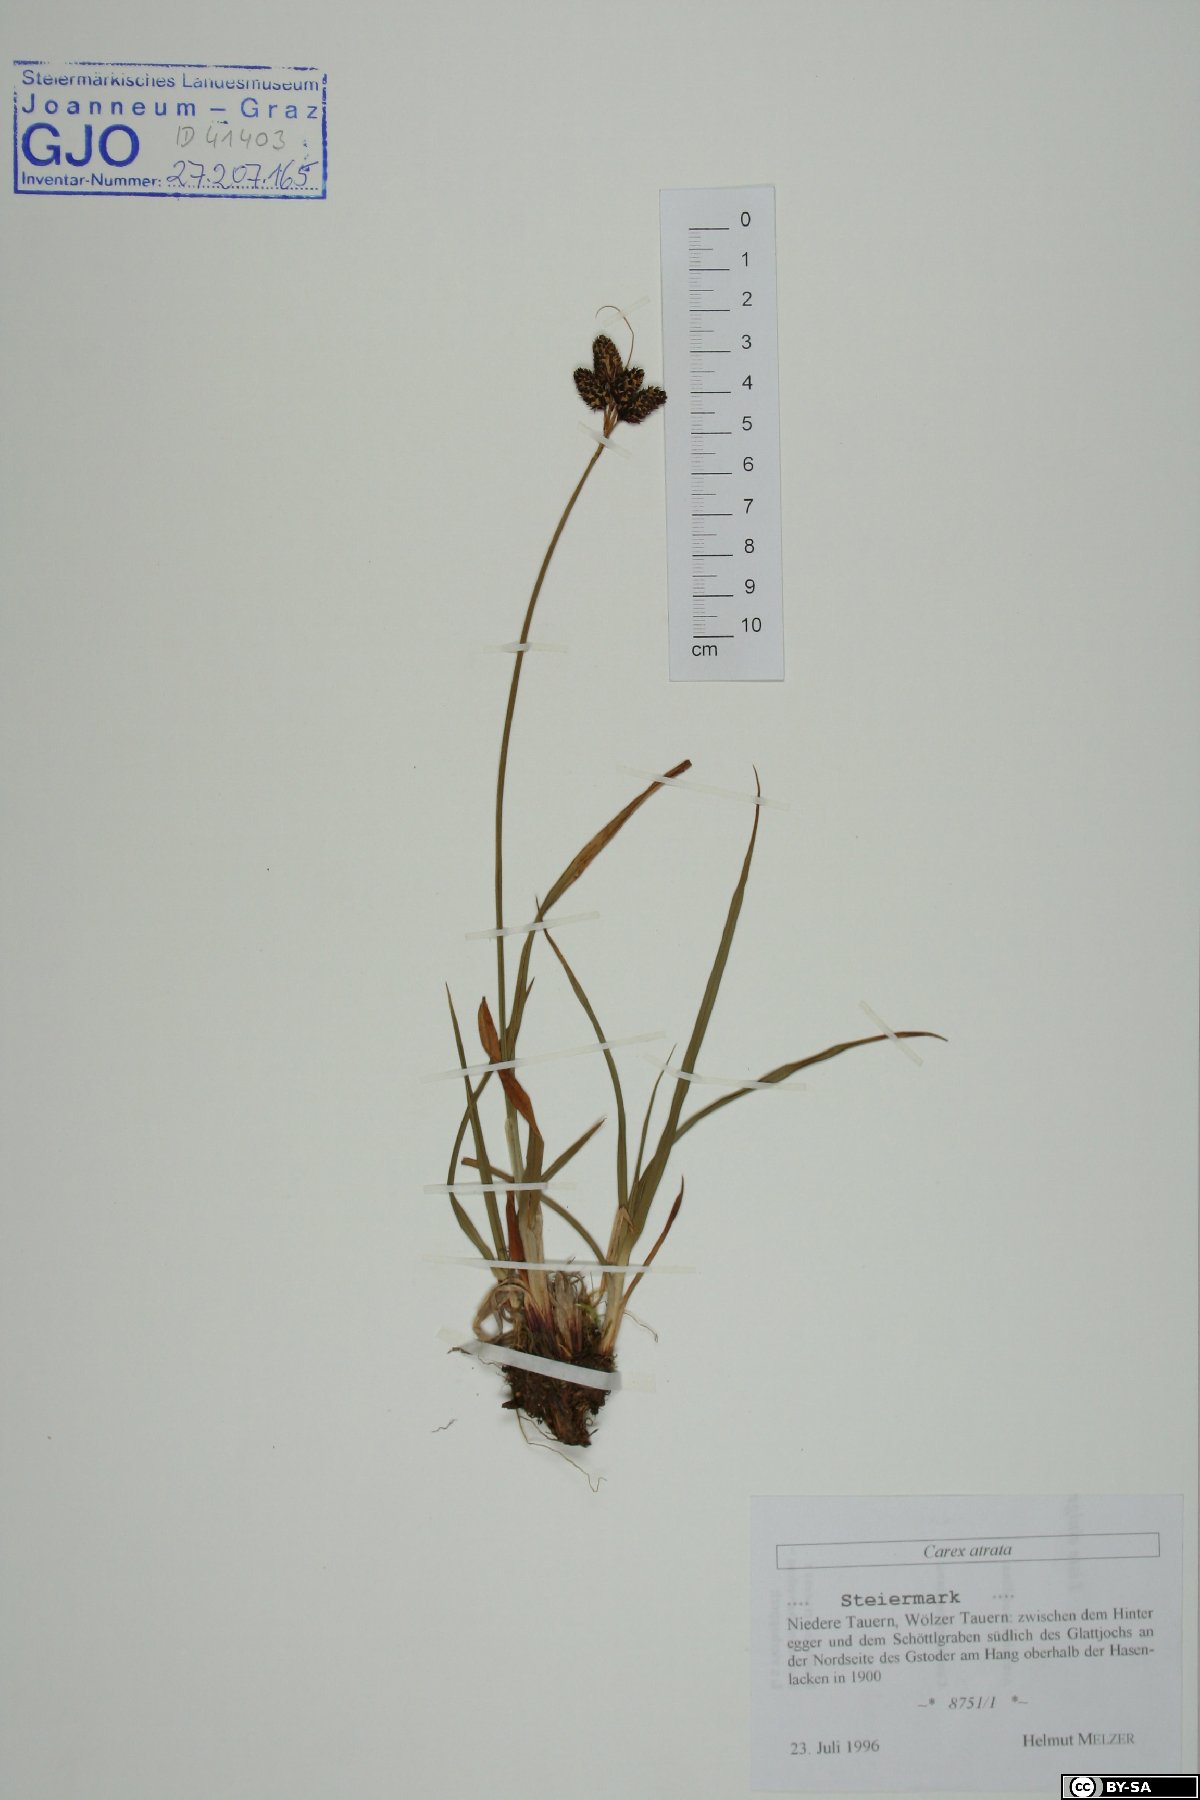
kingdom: Plantae
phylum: Tracheophyta
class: Liliopsida
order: Poales
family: Cyperaceae
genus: Carex
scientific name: Carex atrata
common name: Black alpine sedge
